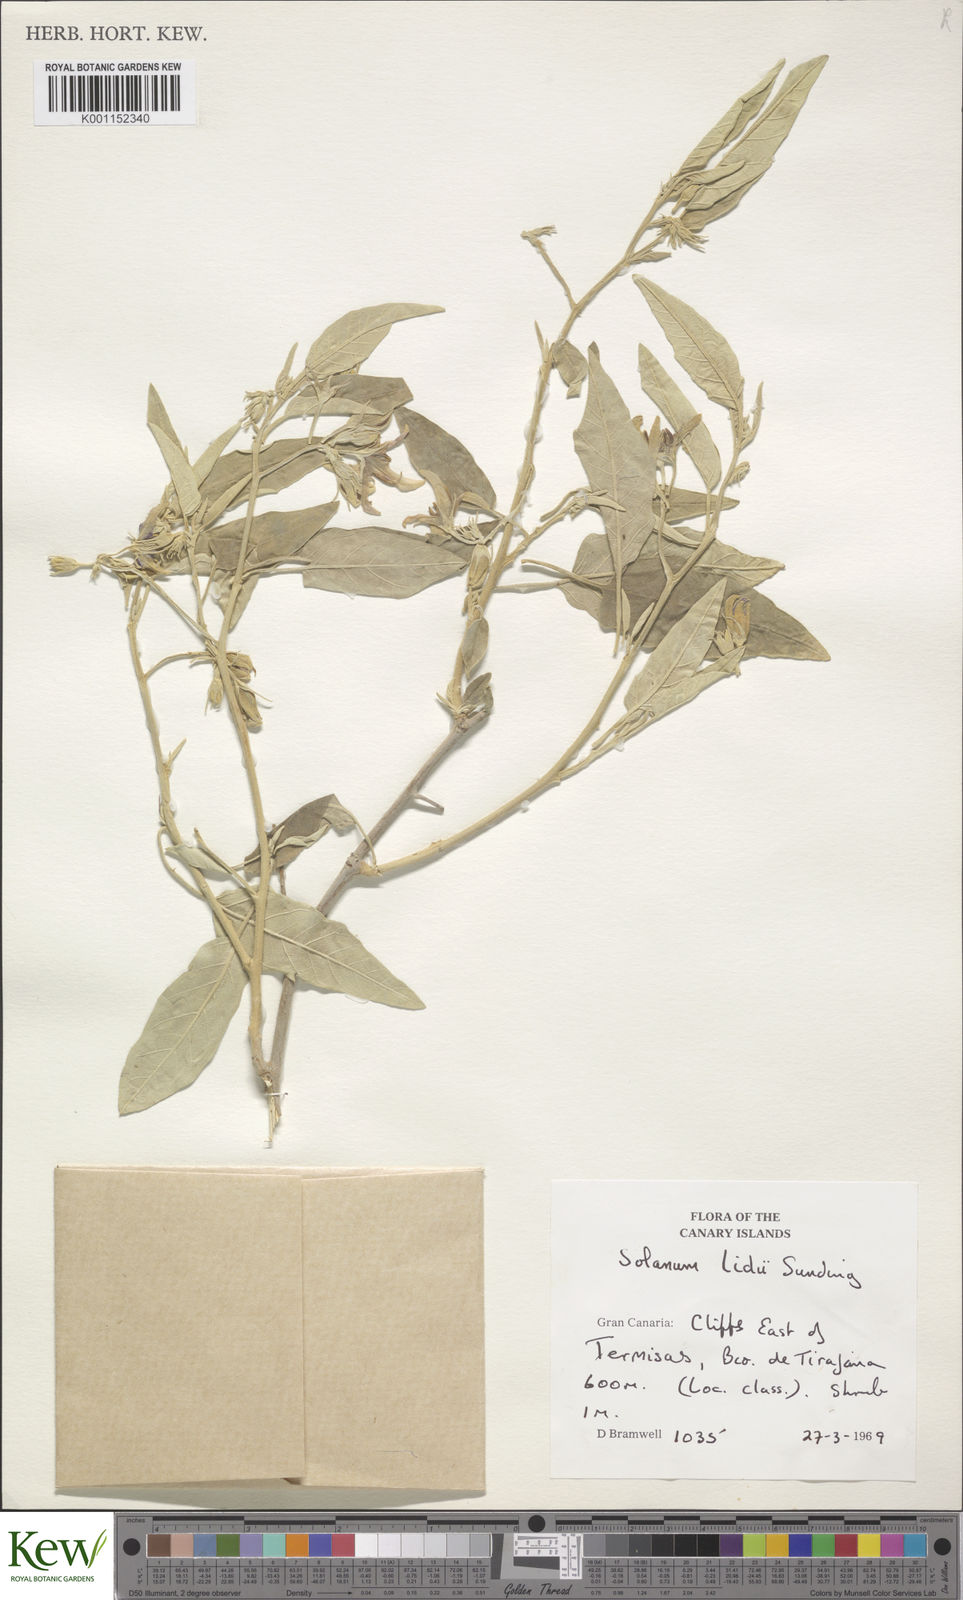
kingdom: Plantae
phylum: Tracheophyta
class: Magnoliopsida
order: Solanales
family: Solanaceae
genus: Solanum
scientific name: Solanum lidii
